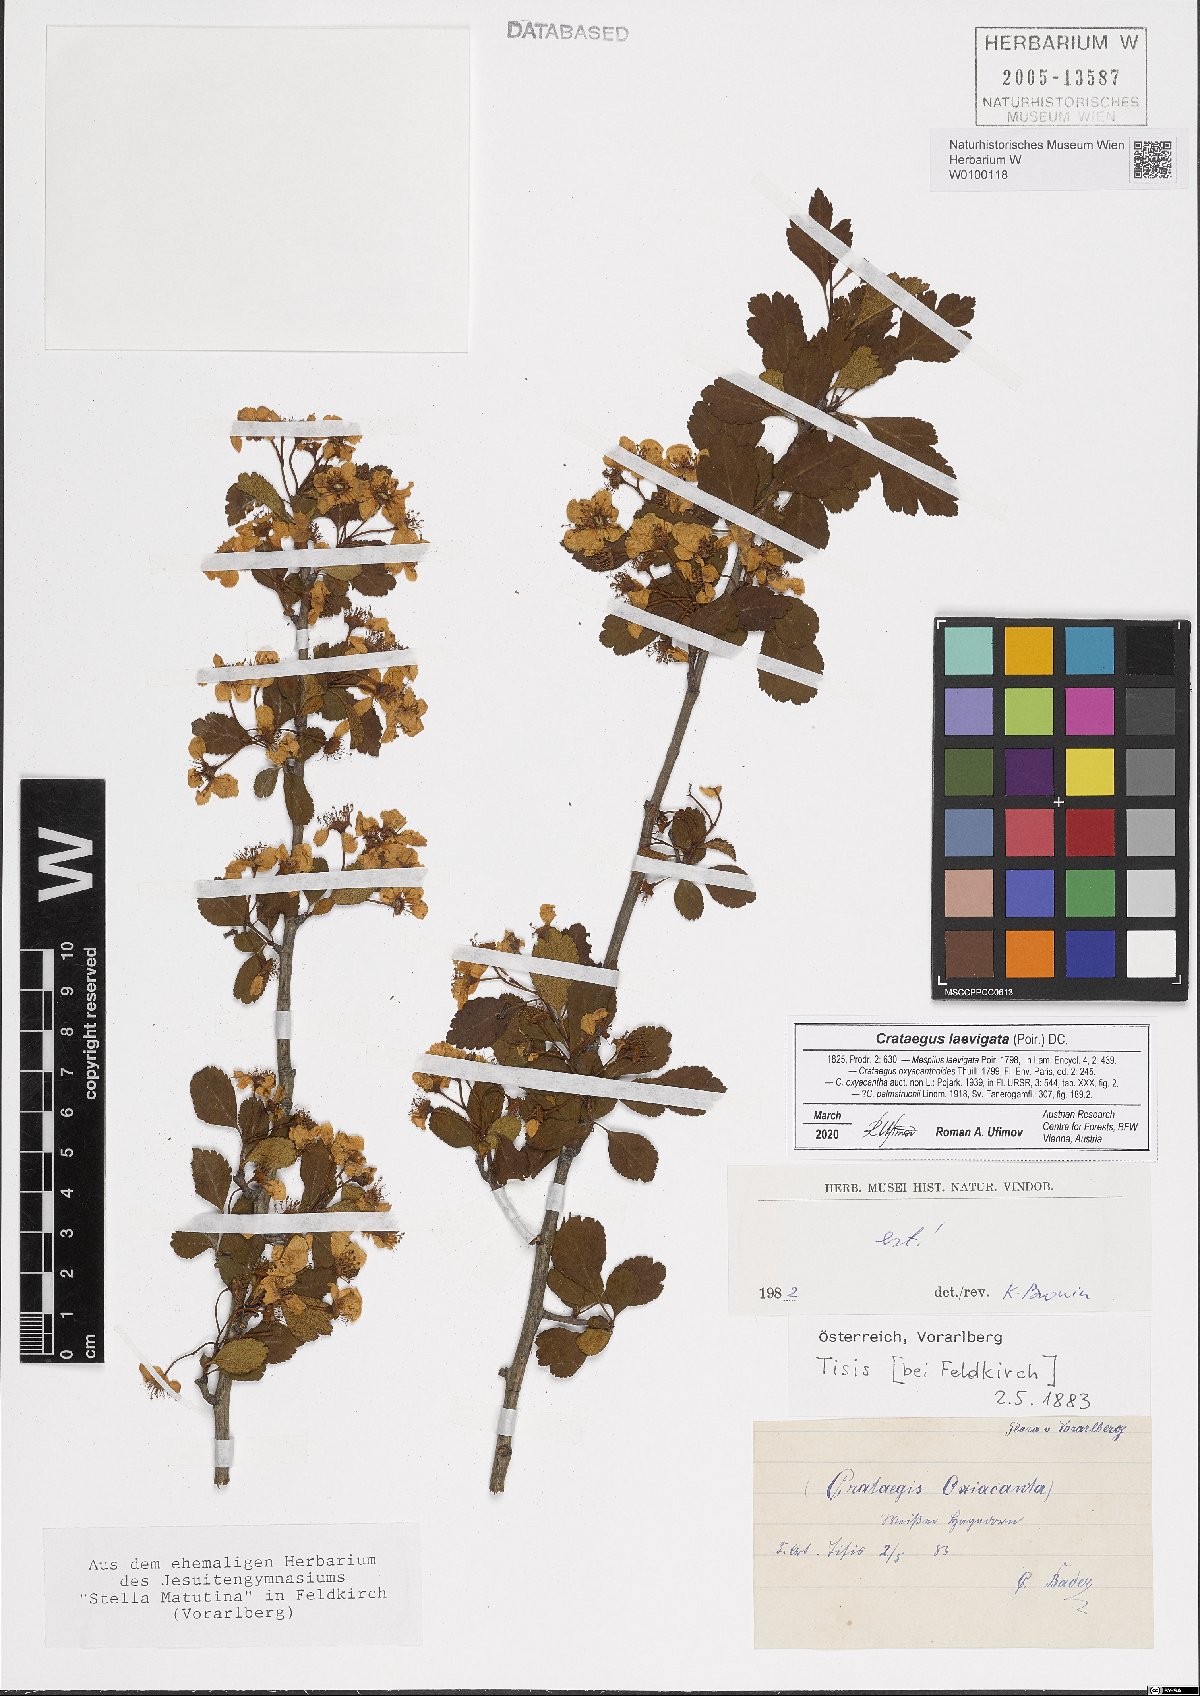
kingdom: Plantae
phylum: Tracheophyta
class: Magnoliopsida
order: Rosales
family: Rosaceae
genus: Crataegus
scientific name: Crataegus laevigata
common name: Midland hawthorn
